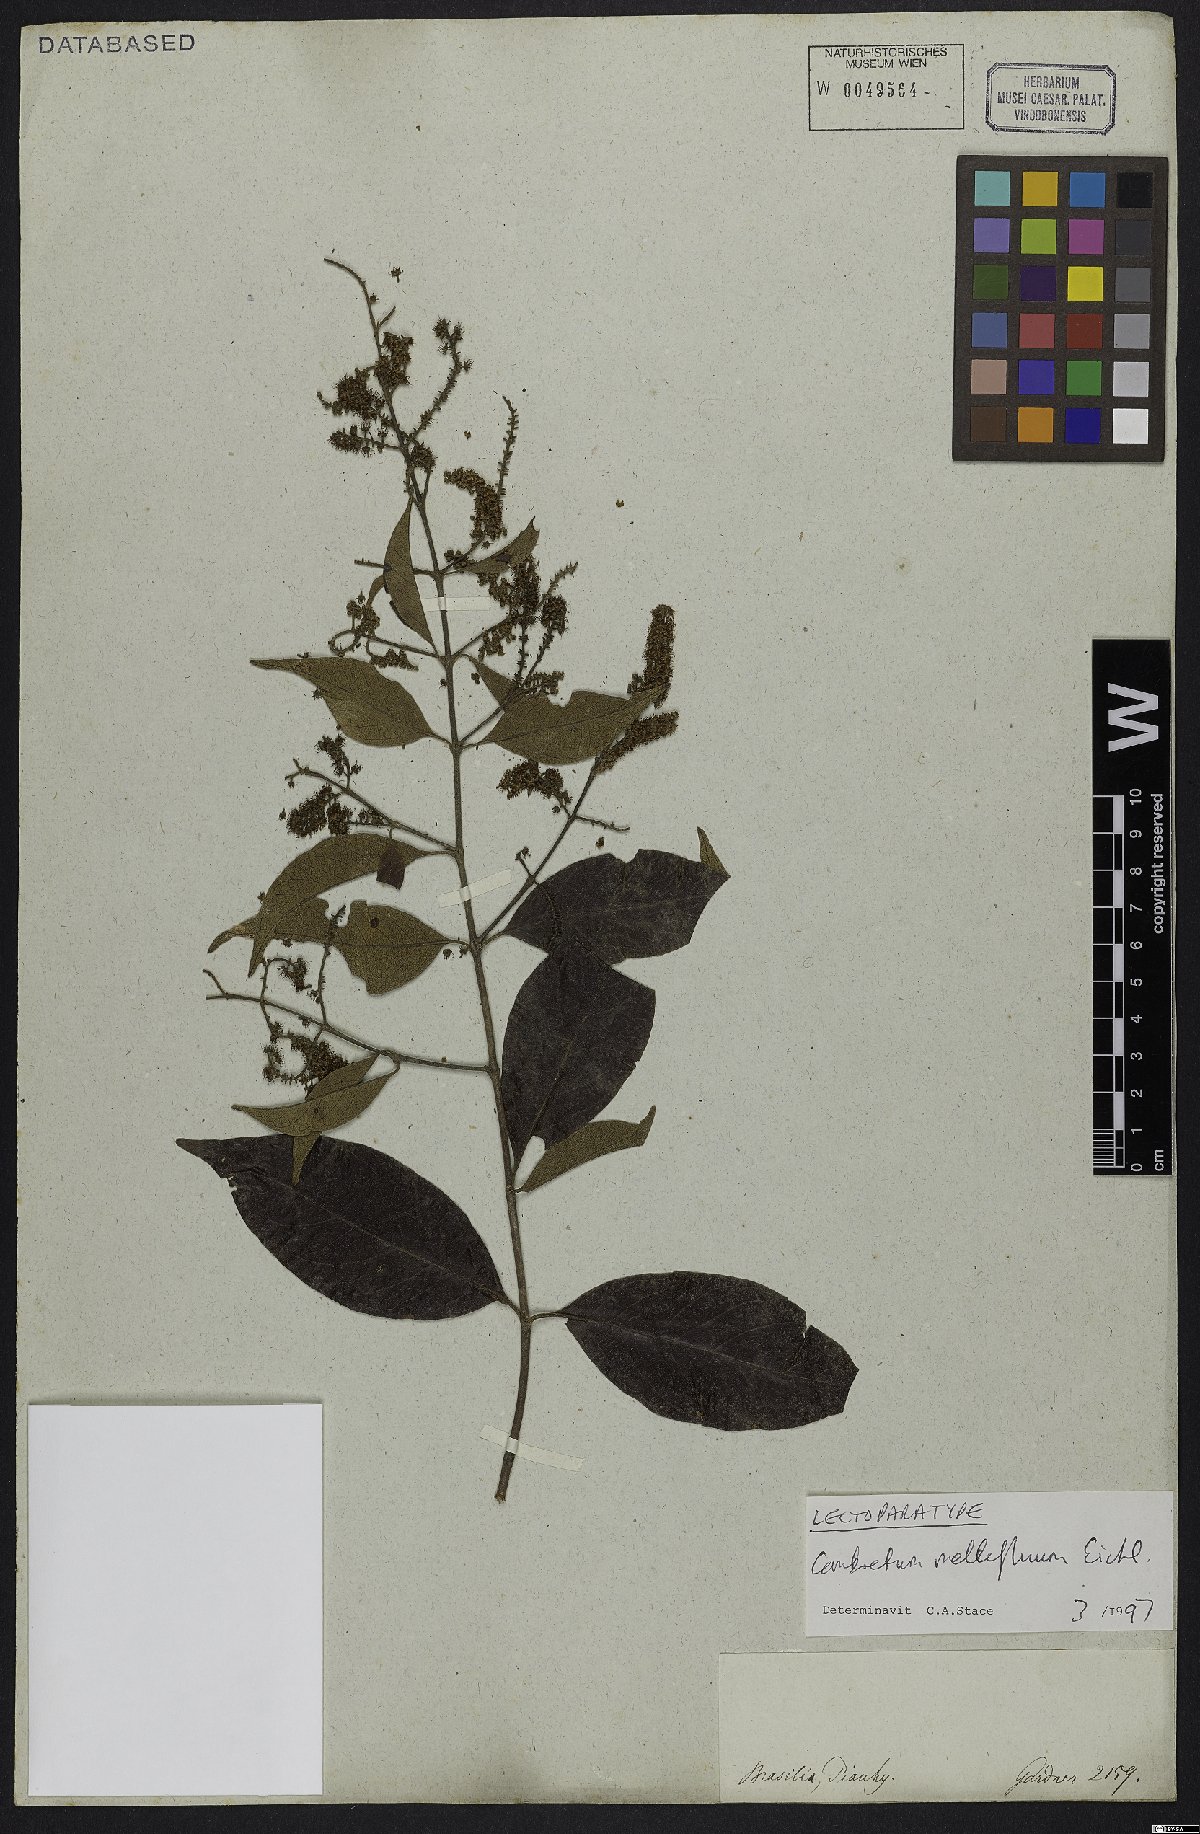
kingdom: Plantae
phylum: Tracheophyta
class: Magnoliopsida
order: Myrtales
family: Combretaceae
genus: Combretum
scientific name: Combretum mellifluum
